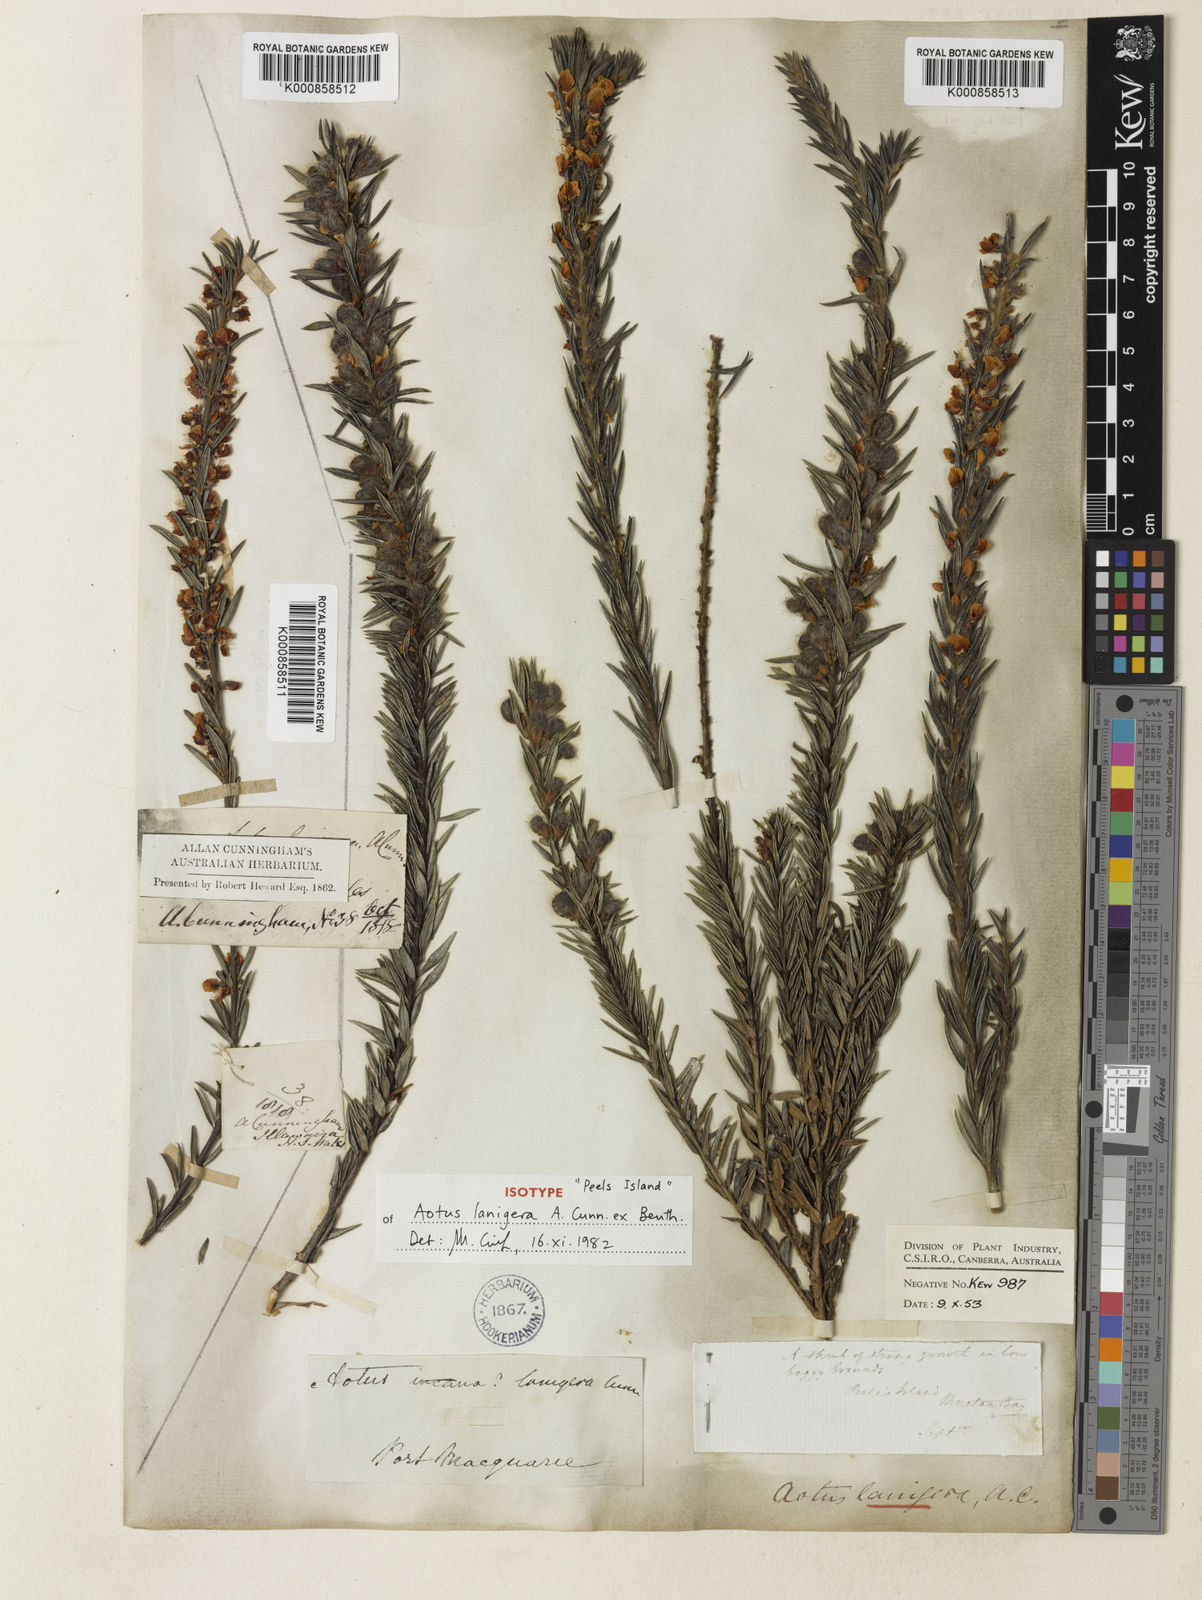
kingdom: Plantae
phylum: Tracheophyta
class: Magnoliopsida
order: Fabales
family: Fabaceae
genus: Aotus
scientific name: Aotus lanigera
